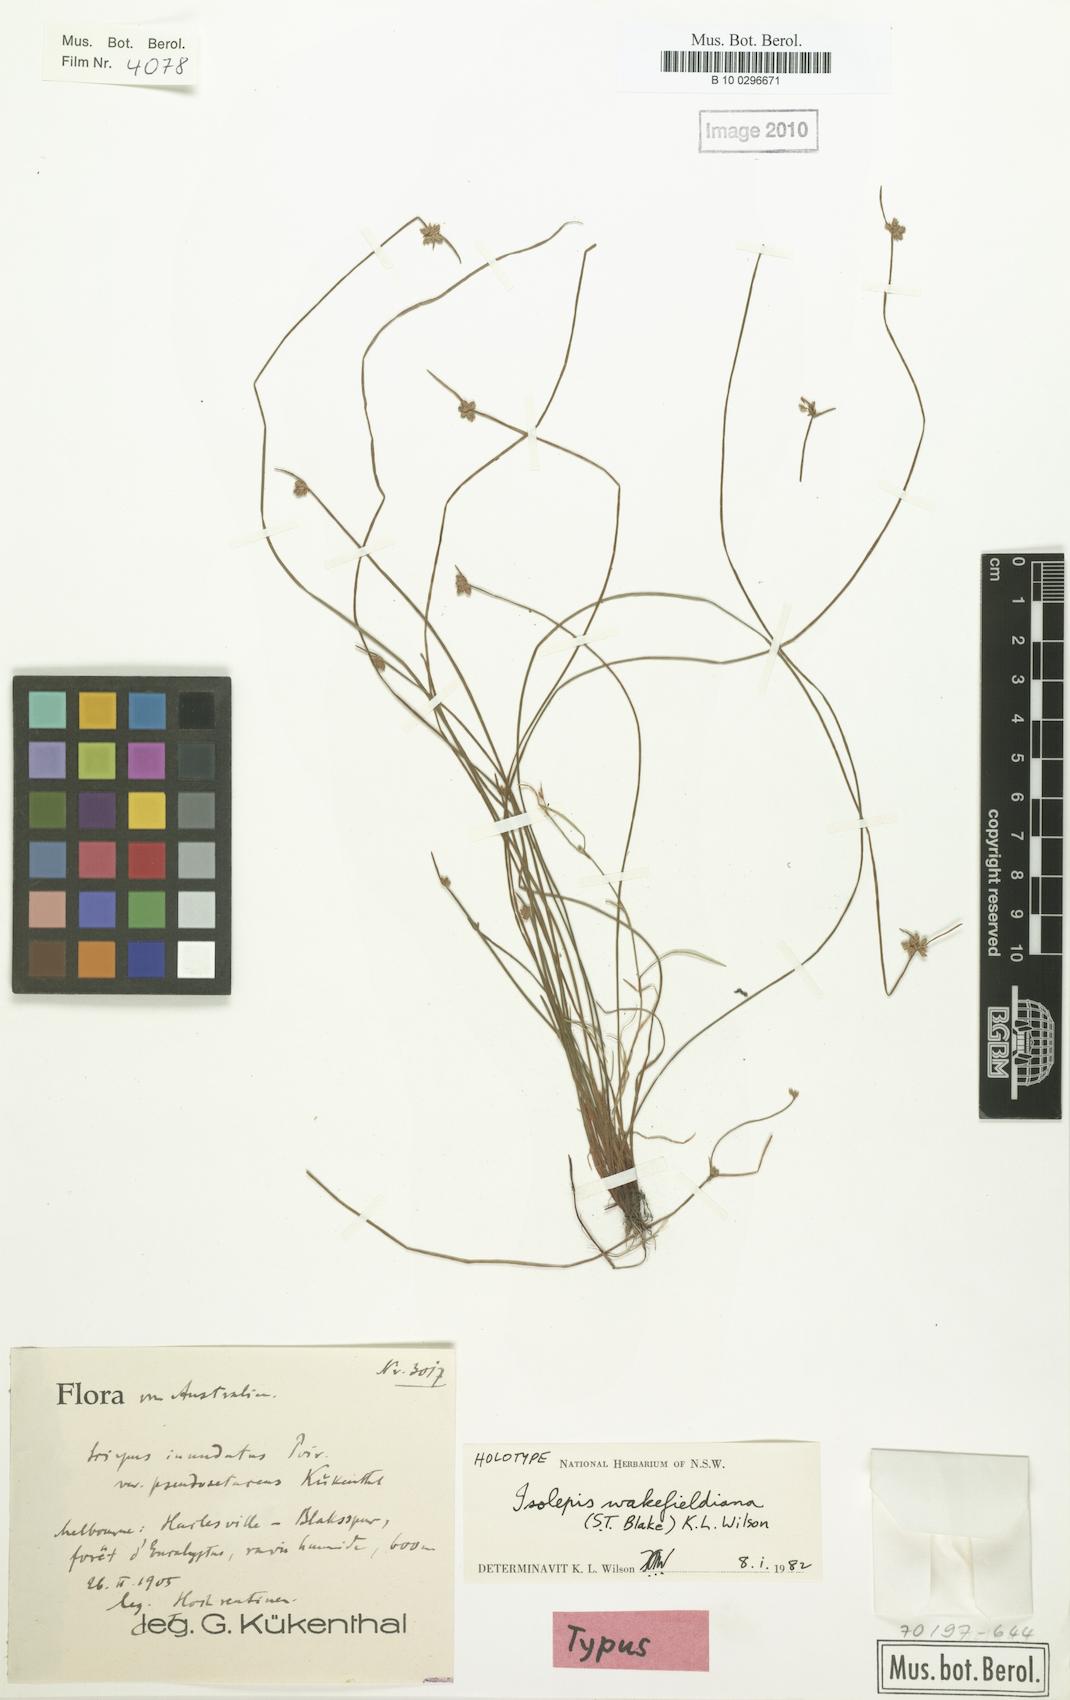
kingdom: Plantae
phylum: Tracheophyta
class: Liliopsida
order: Poales
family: Cyperaceae
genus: Isolepis
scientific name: Isolepis wakefieldiana
